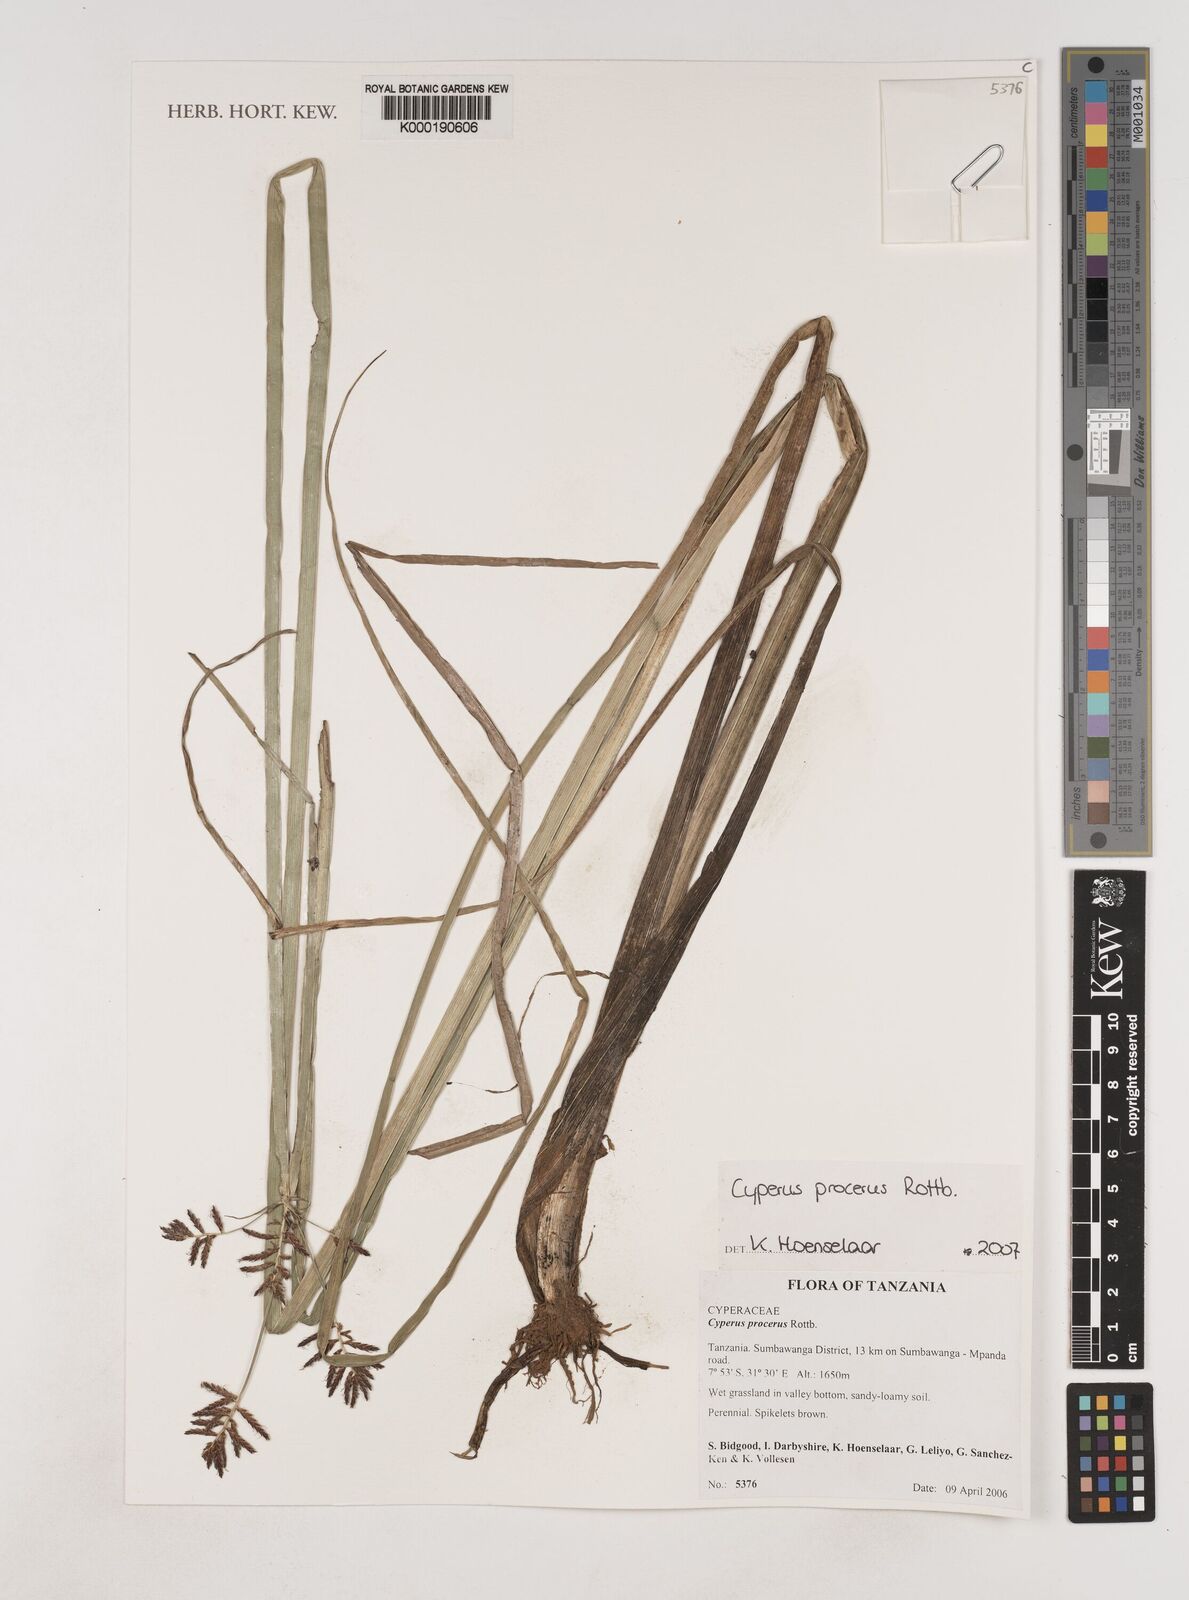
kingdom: Plantae
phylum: Tracheophyta
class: Liliopsida
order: Poales
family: Cyperaceae
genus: Cyperus
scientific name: Cyperus procerus
